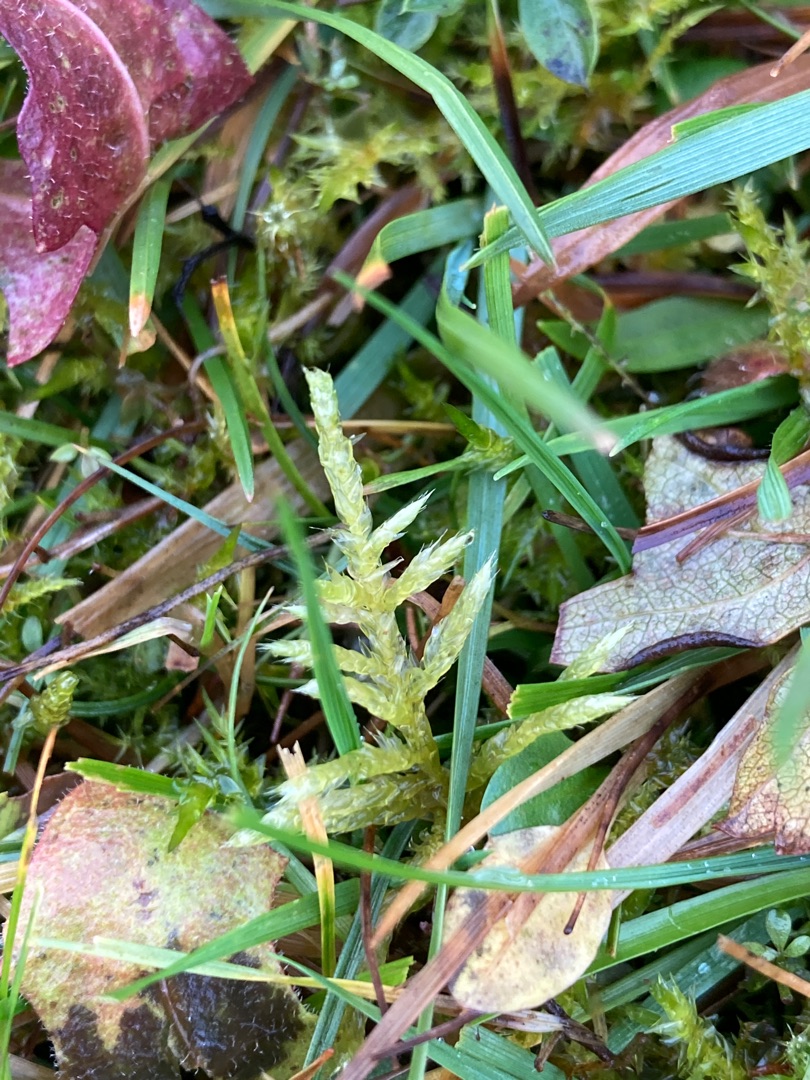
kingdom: Plantae
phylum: Bryophyta
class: Bryopsida
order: Hypnales
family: Brachytheciaceae
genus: Cirriphyllum
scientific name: Cirriphyllum piliferum
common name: Almindelig penselmos
